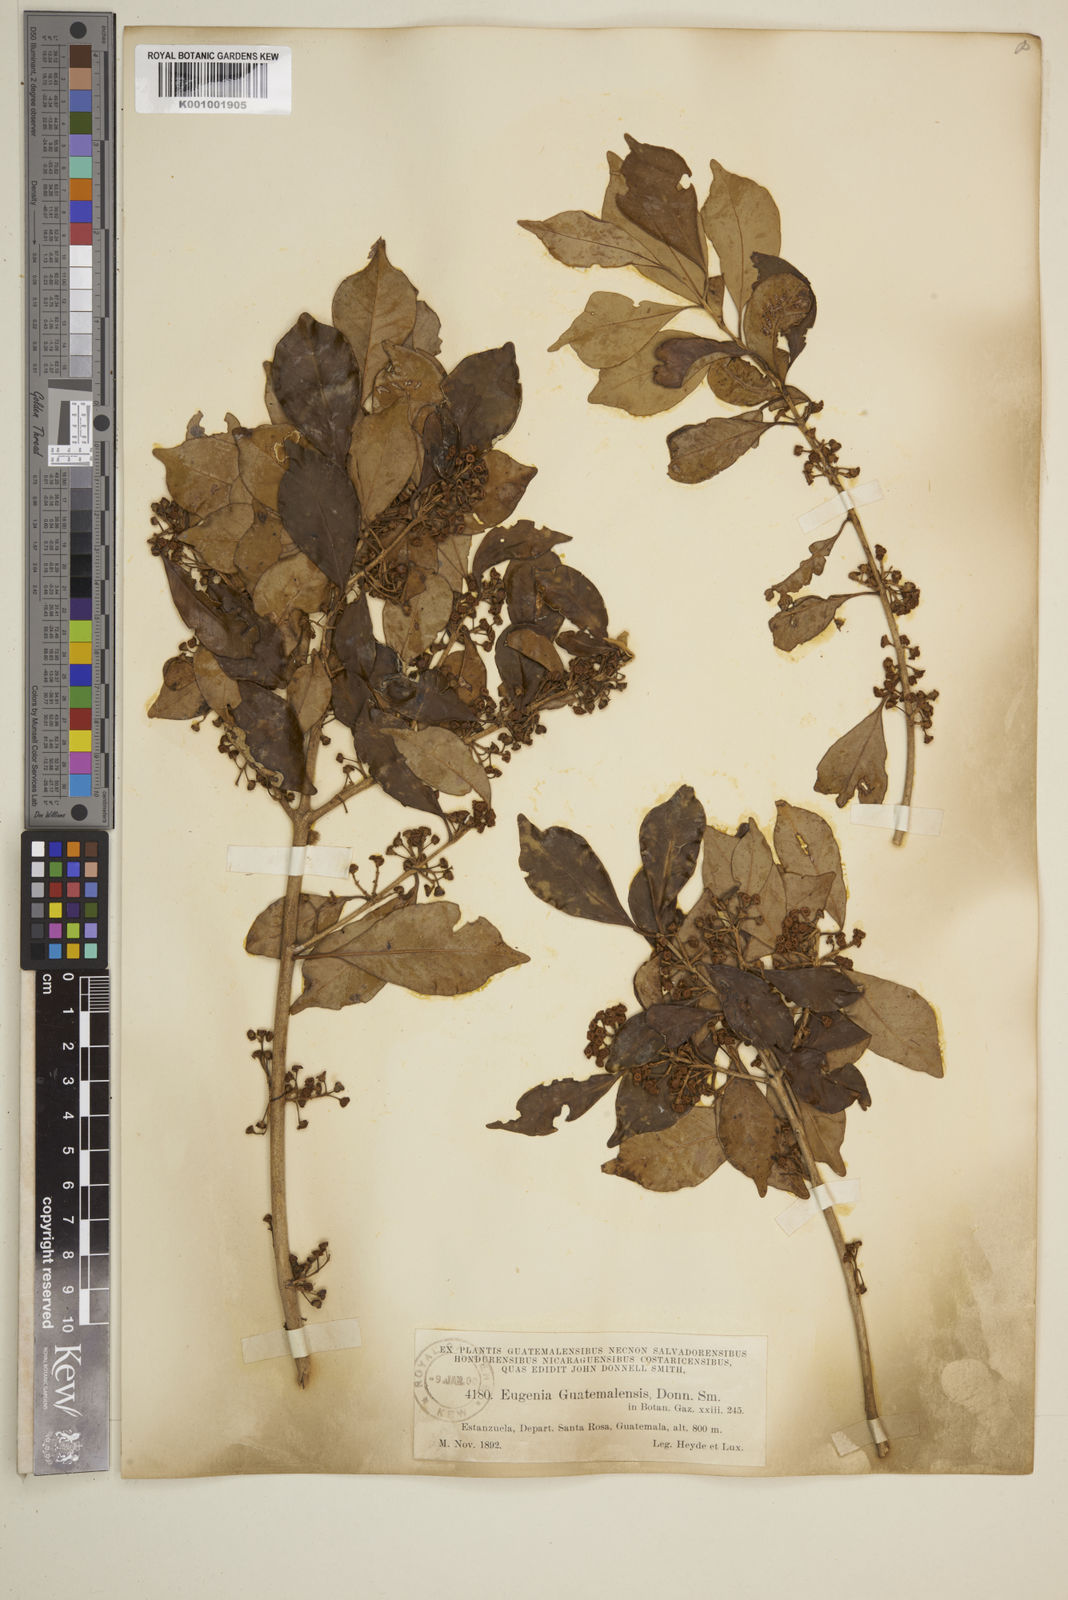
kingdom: Plantae
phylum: Tracheophyta
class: Magnoliopsida
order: Myrtales
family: Myrtaceae
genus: Eugenia
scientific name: Eugenia guatemalensis
